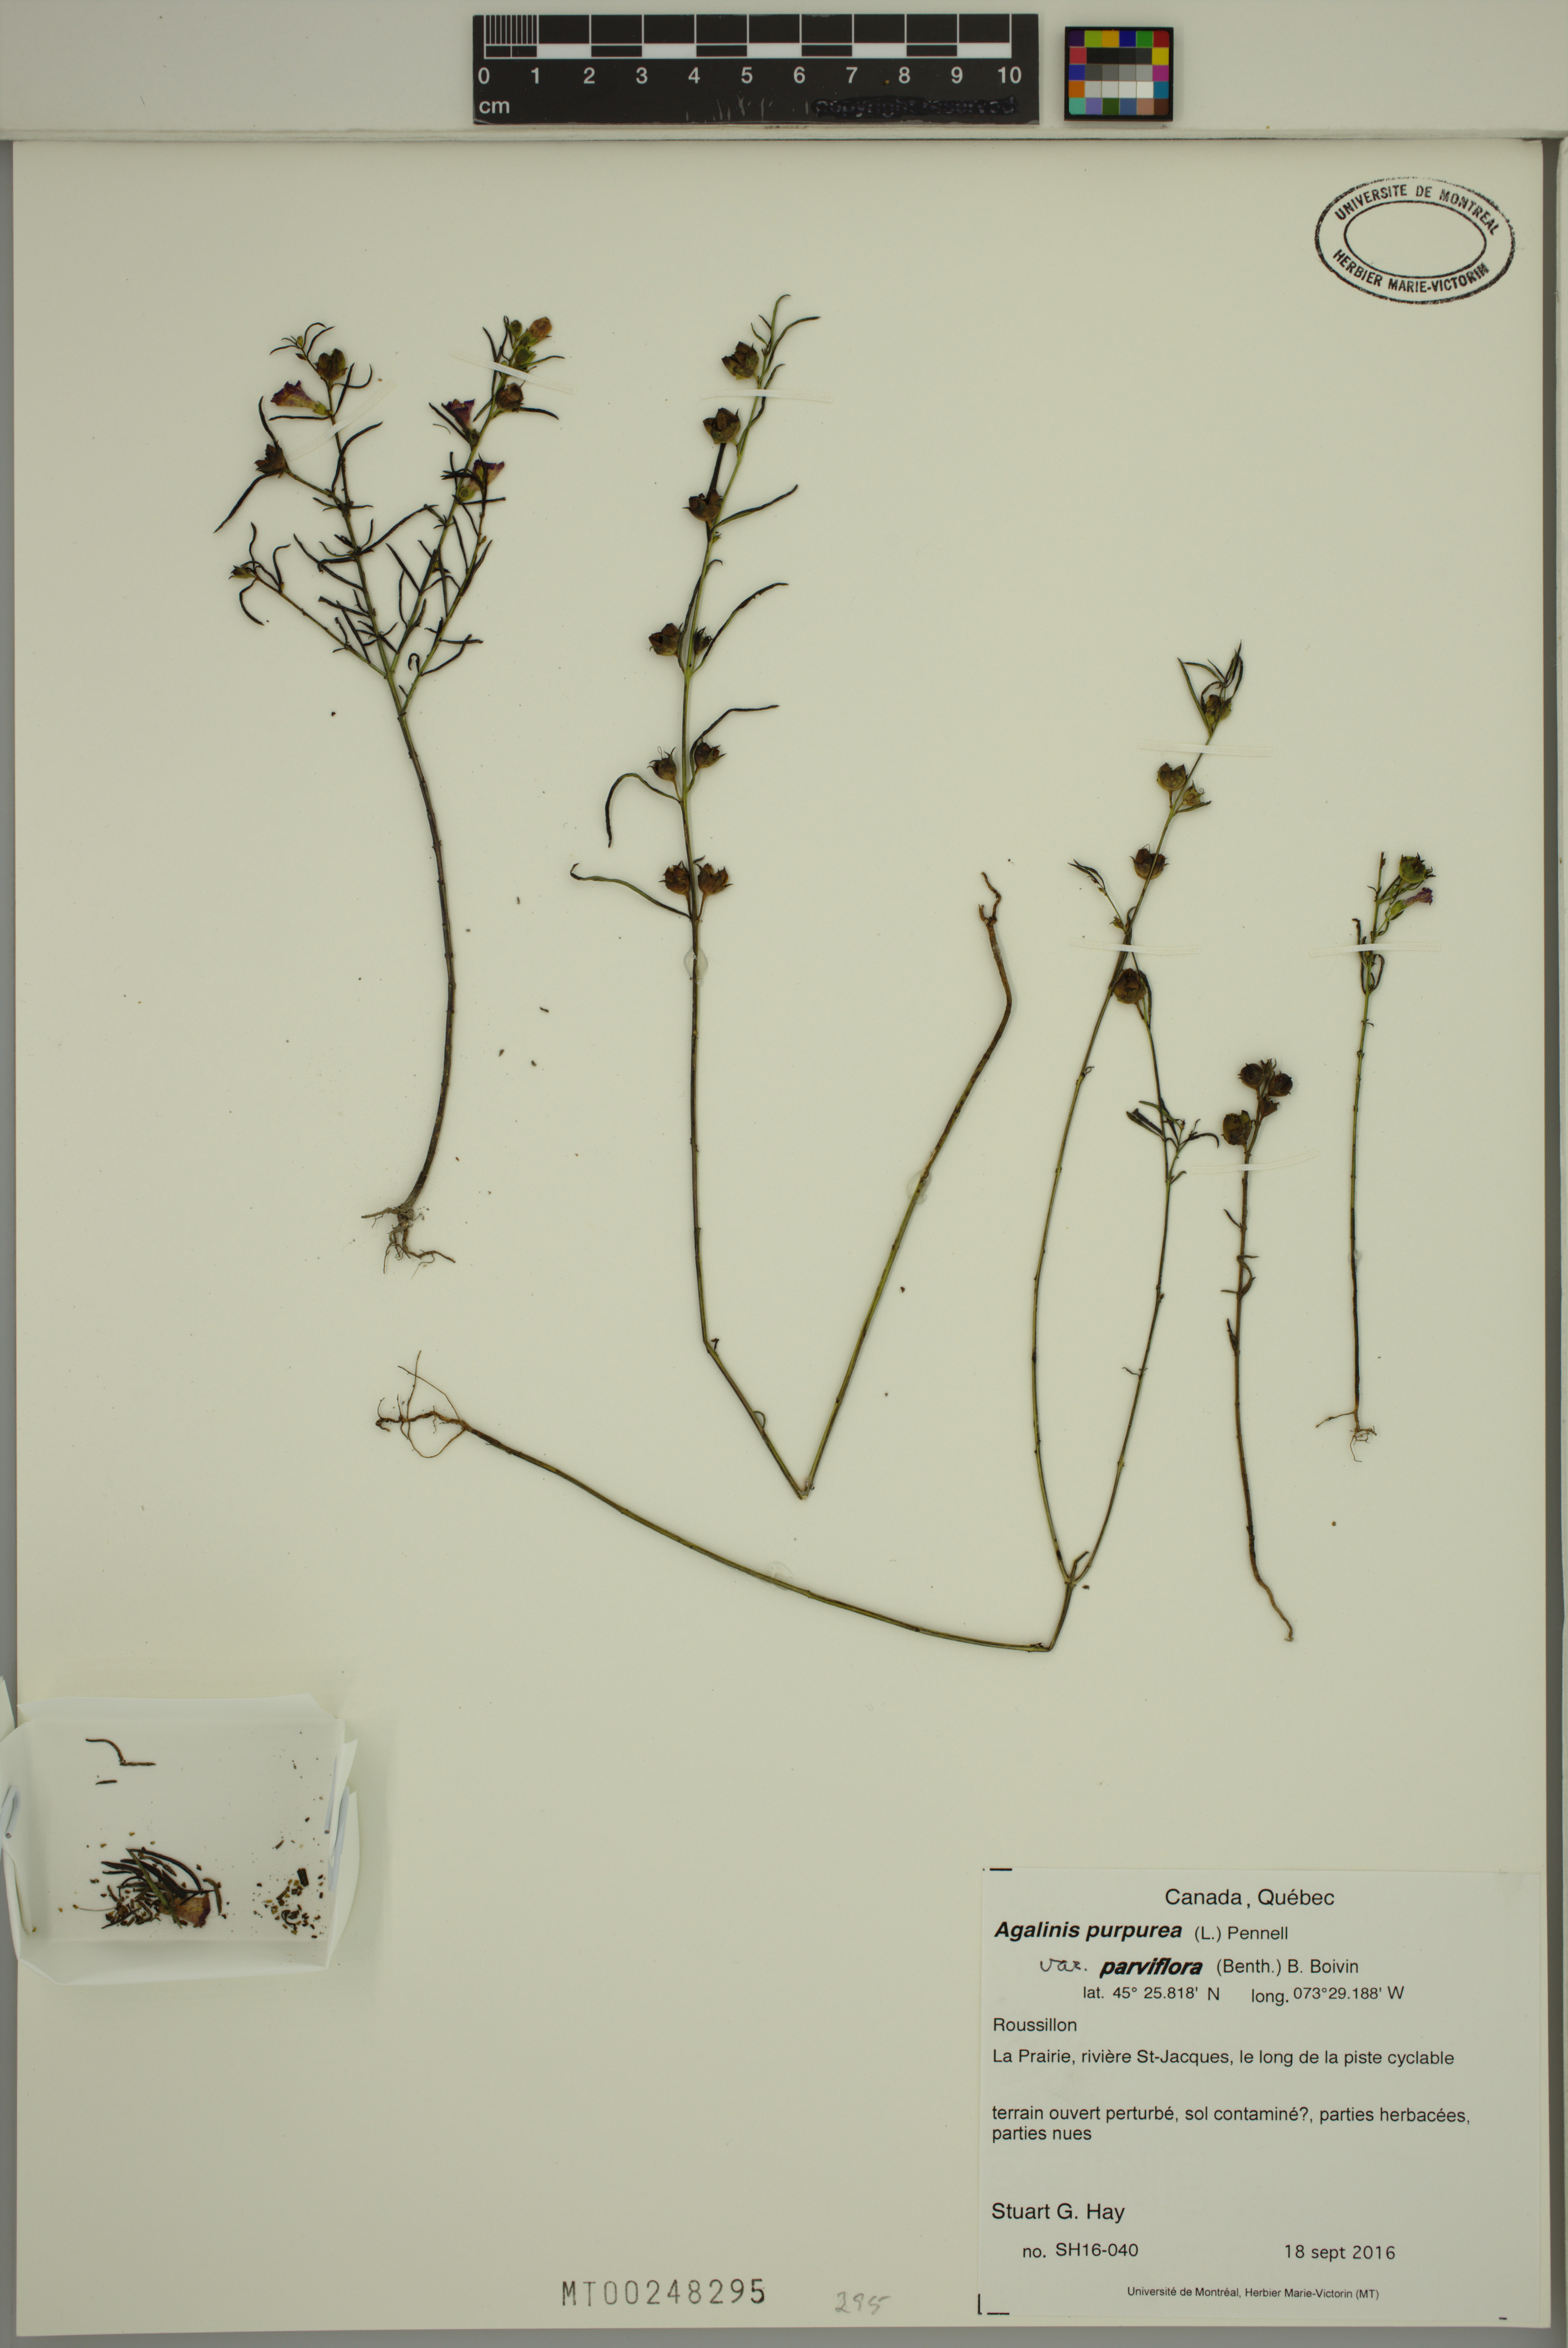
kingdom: Plantae
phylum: Tracheophyta
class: Magnoliopsida
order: Lamiales
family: Orobanchaceae
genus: Agalinis
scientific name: Agalinis purpurea
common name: Purple false foxglove
